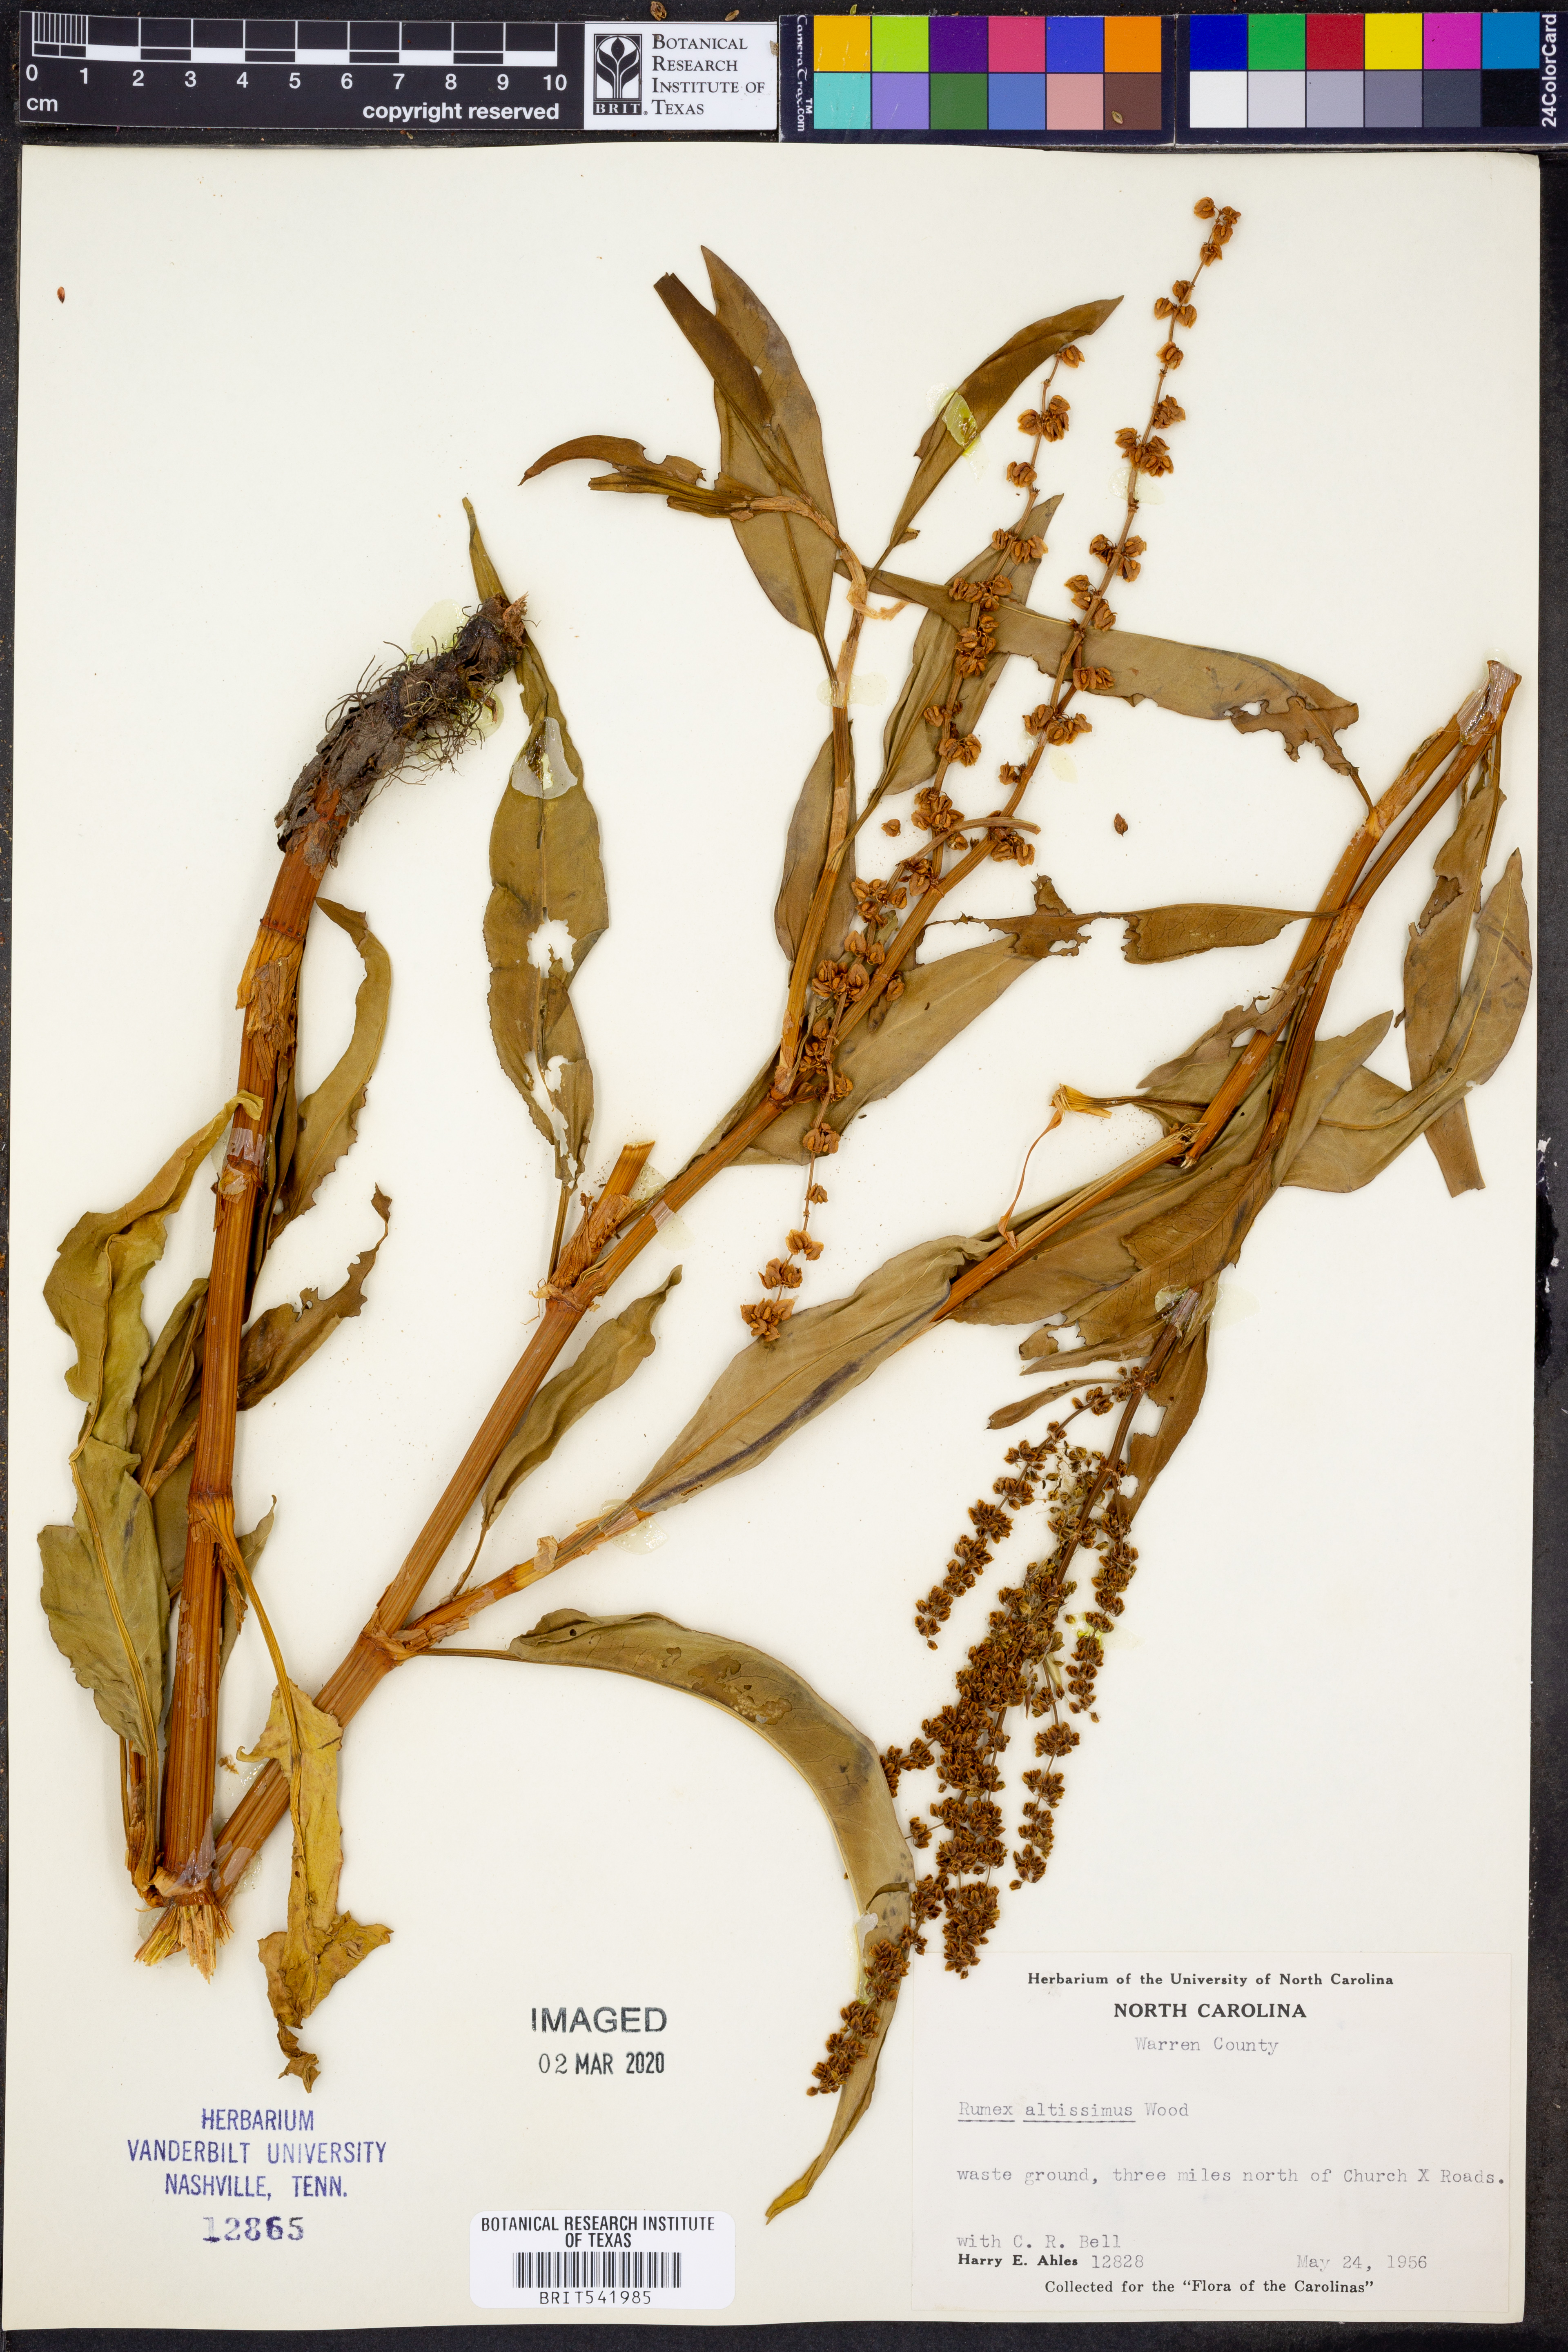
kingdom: Plantae
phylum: Tracheophyta
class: Magnoliopsida
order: Caryophyllales
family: Polygonaceae
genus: Rumex
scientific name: Rumex altissimus
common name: Smooth dock
